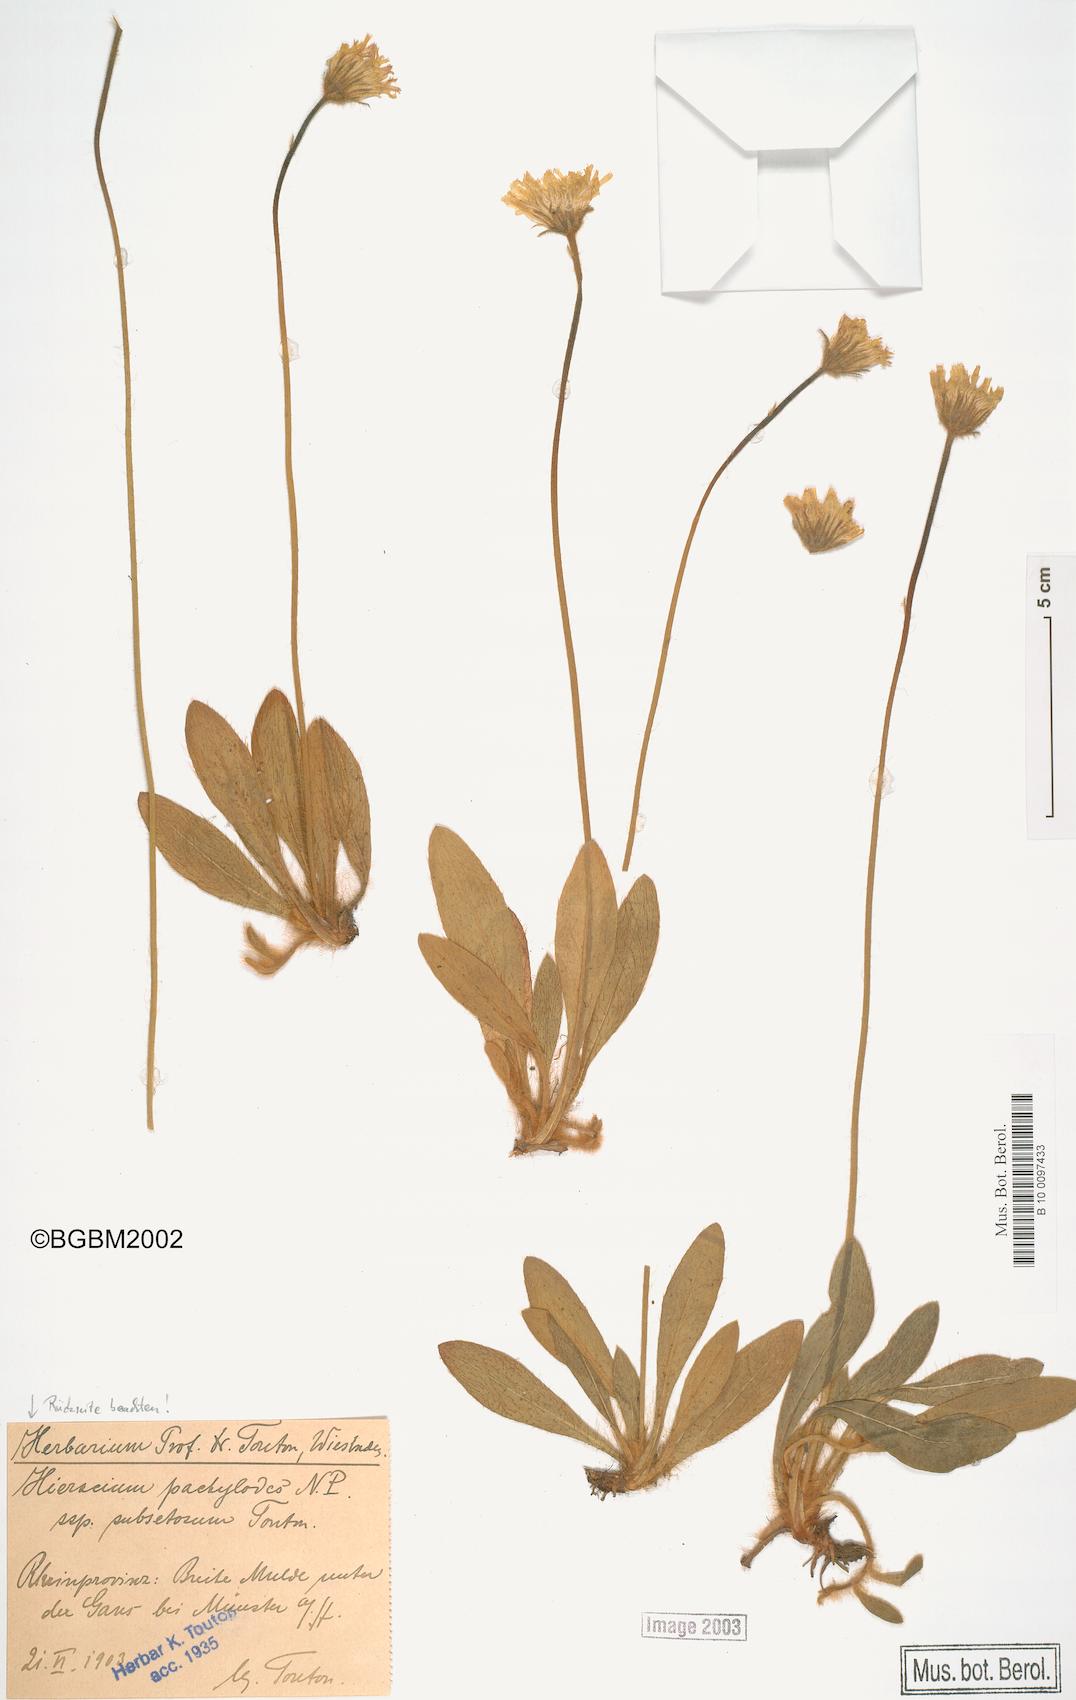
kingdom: Plantae
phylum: Tracheophyta
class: Magnoliopsida
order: Asterales
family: Asteraceae
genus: Pilosella
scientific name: Pilosella longisquama
